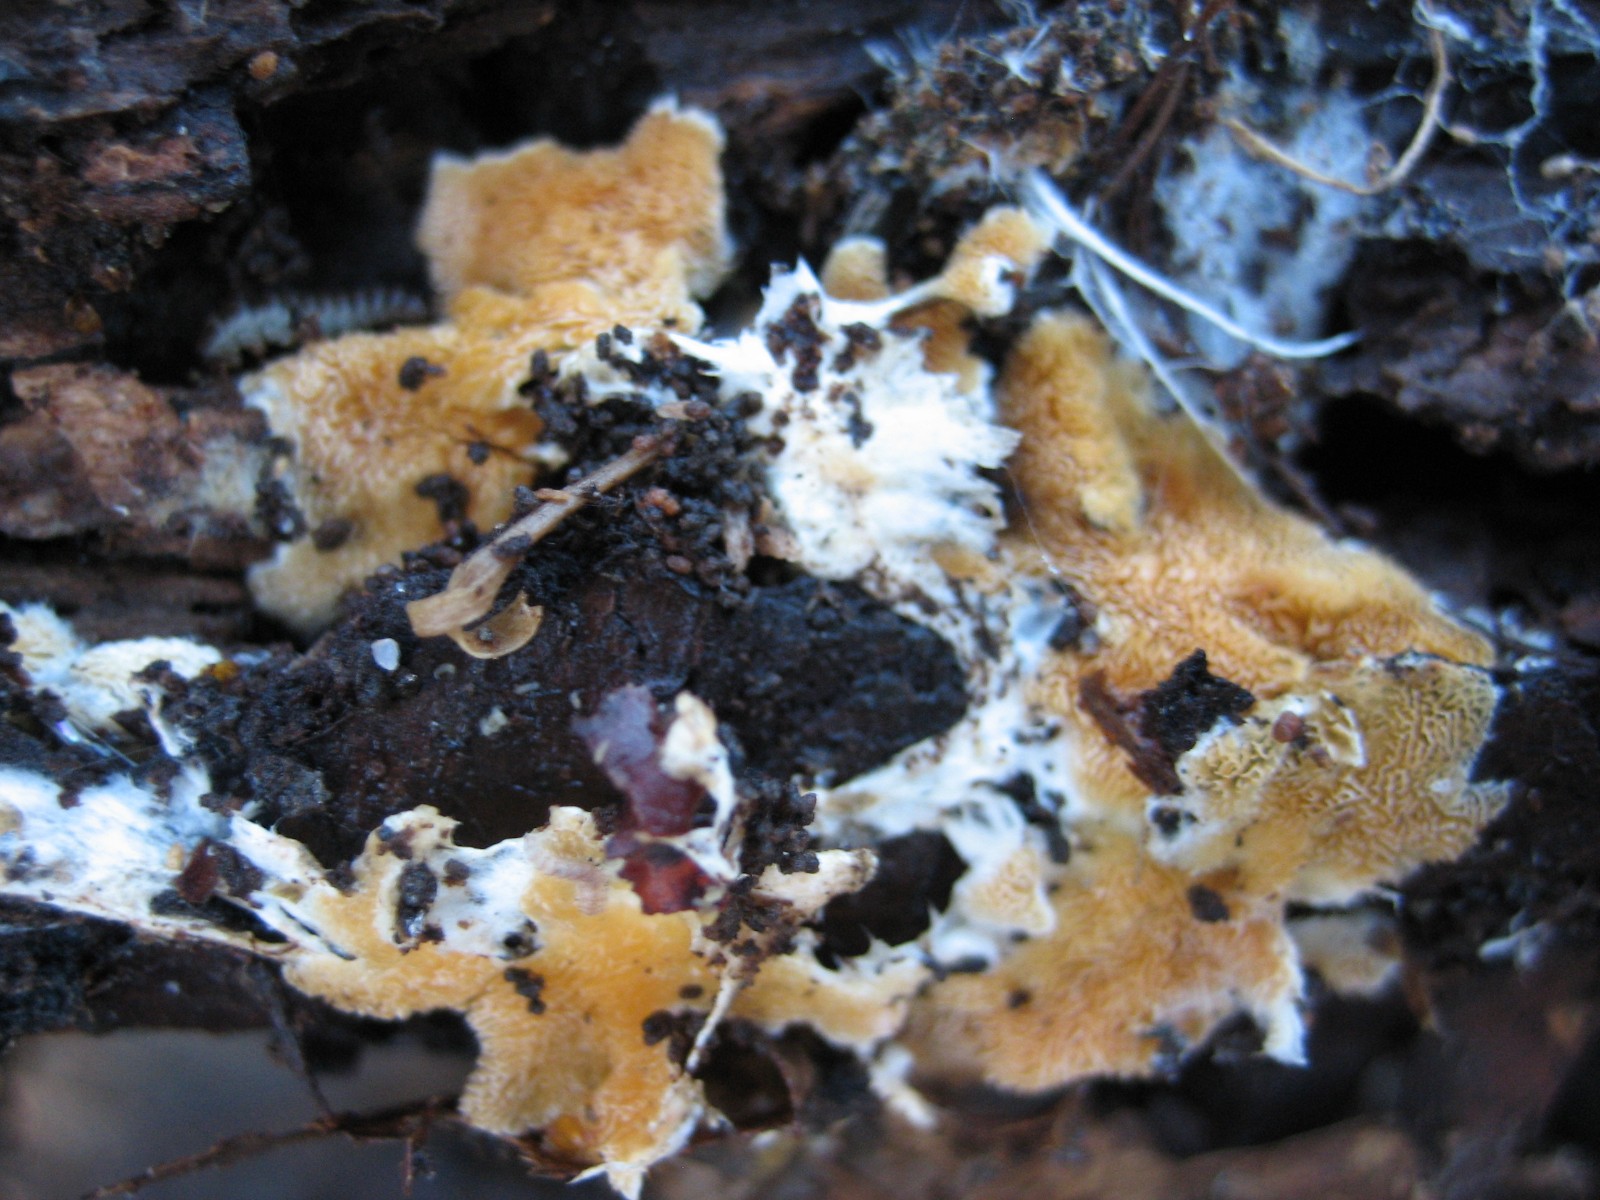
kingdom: Fungi
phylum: Basidiomycota
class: Agaricomycetes
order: Corticiales
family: Corticiaceae
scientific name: Corticiaceae
